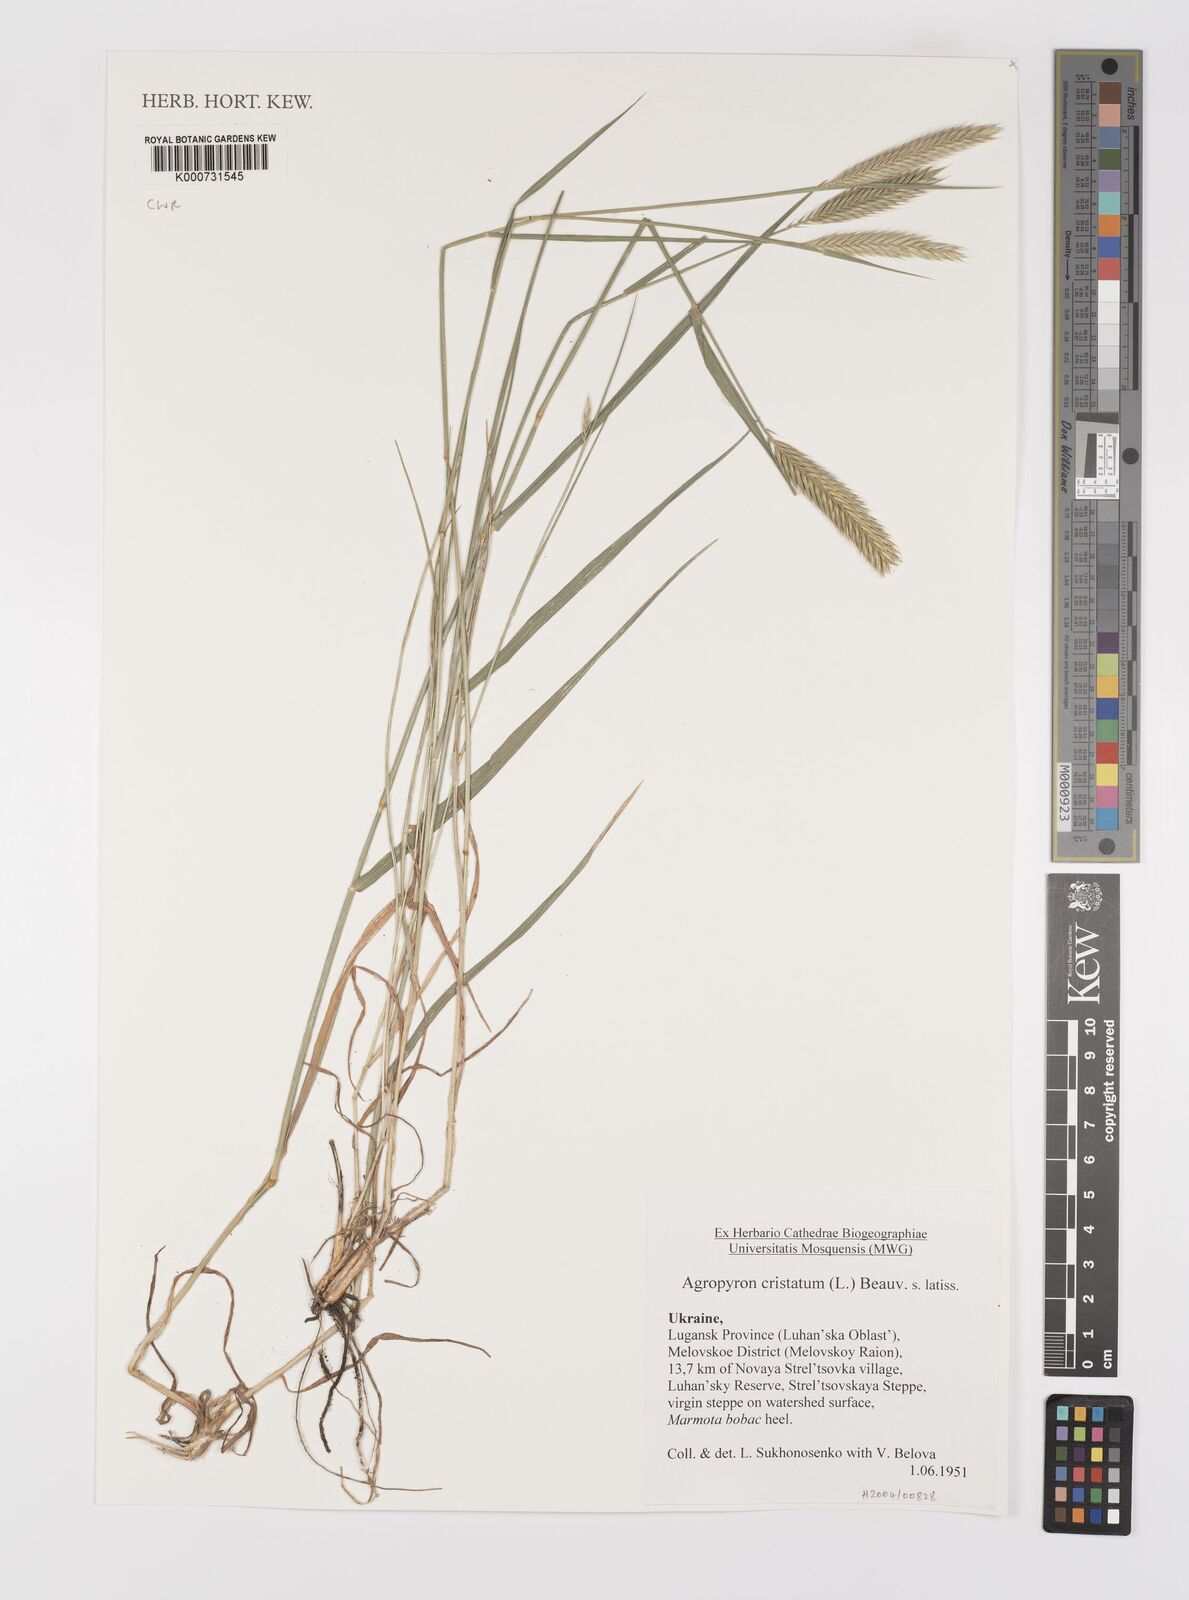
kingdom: Plantae
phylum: Tracheophyta
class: Liliopsida
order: Poales
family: Poaceae
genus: Agropyron
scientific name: Agropyron
